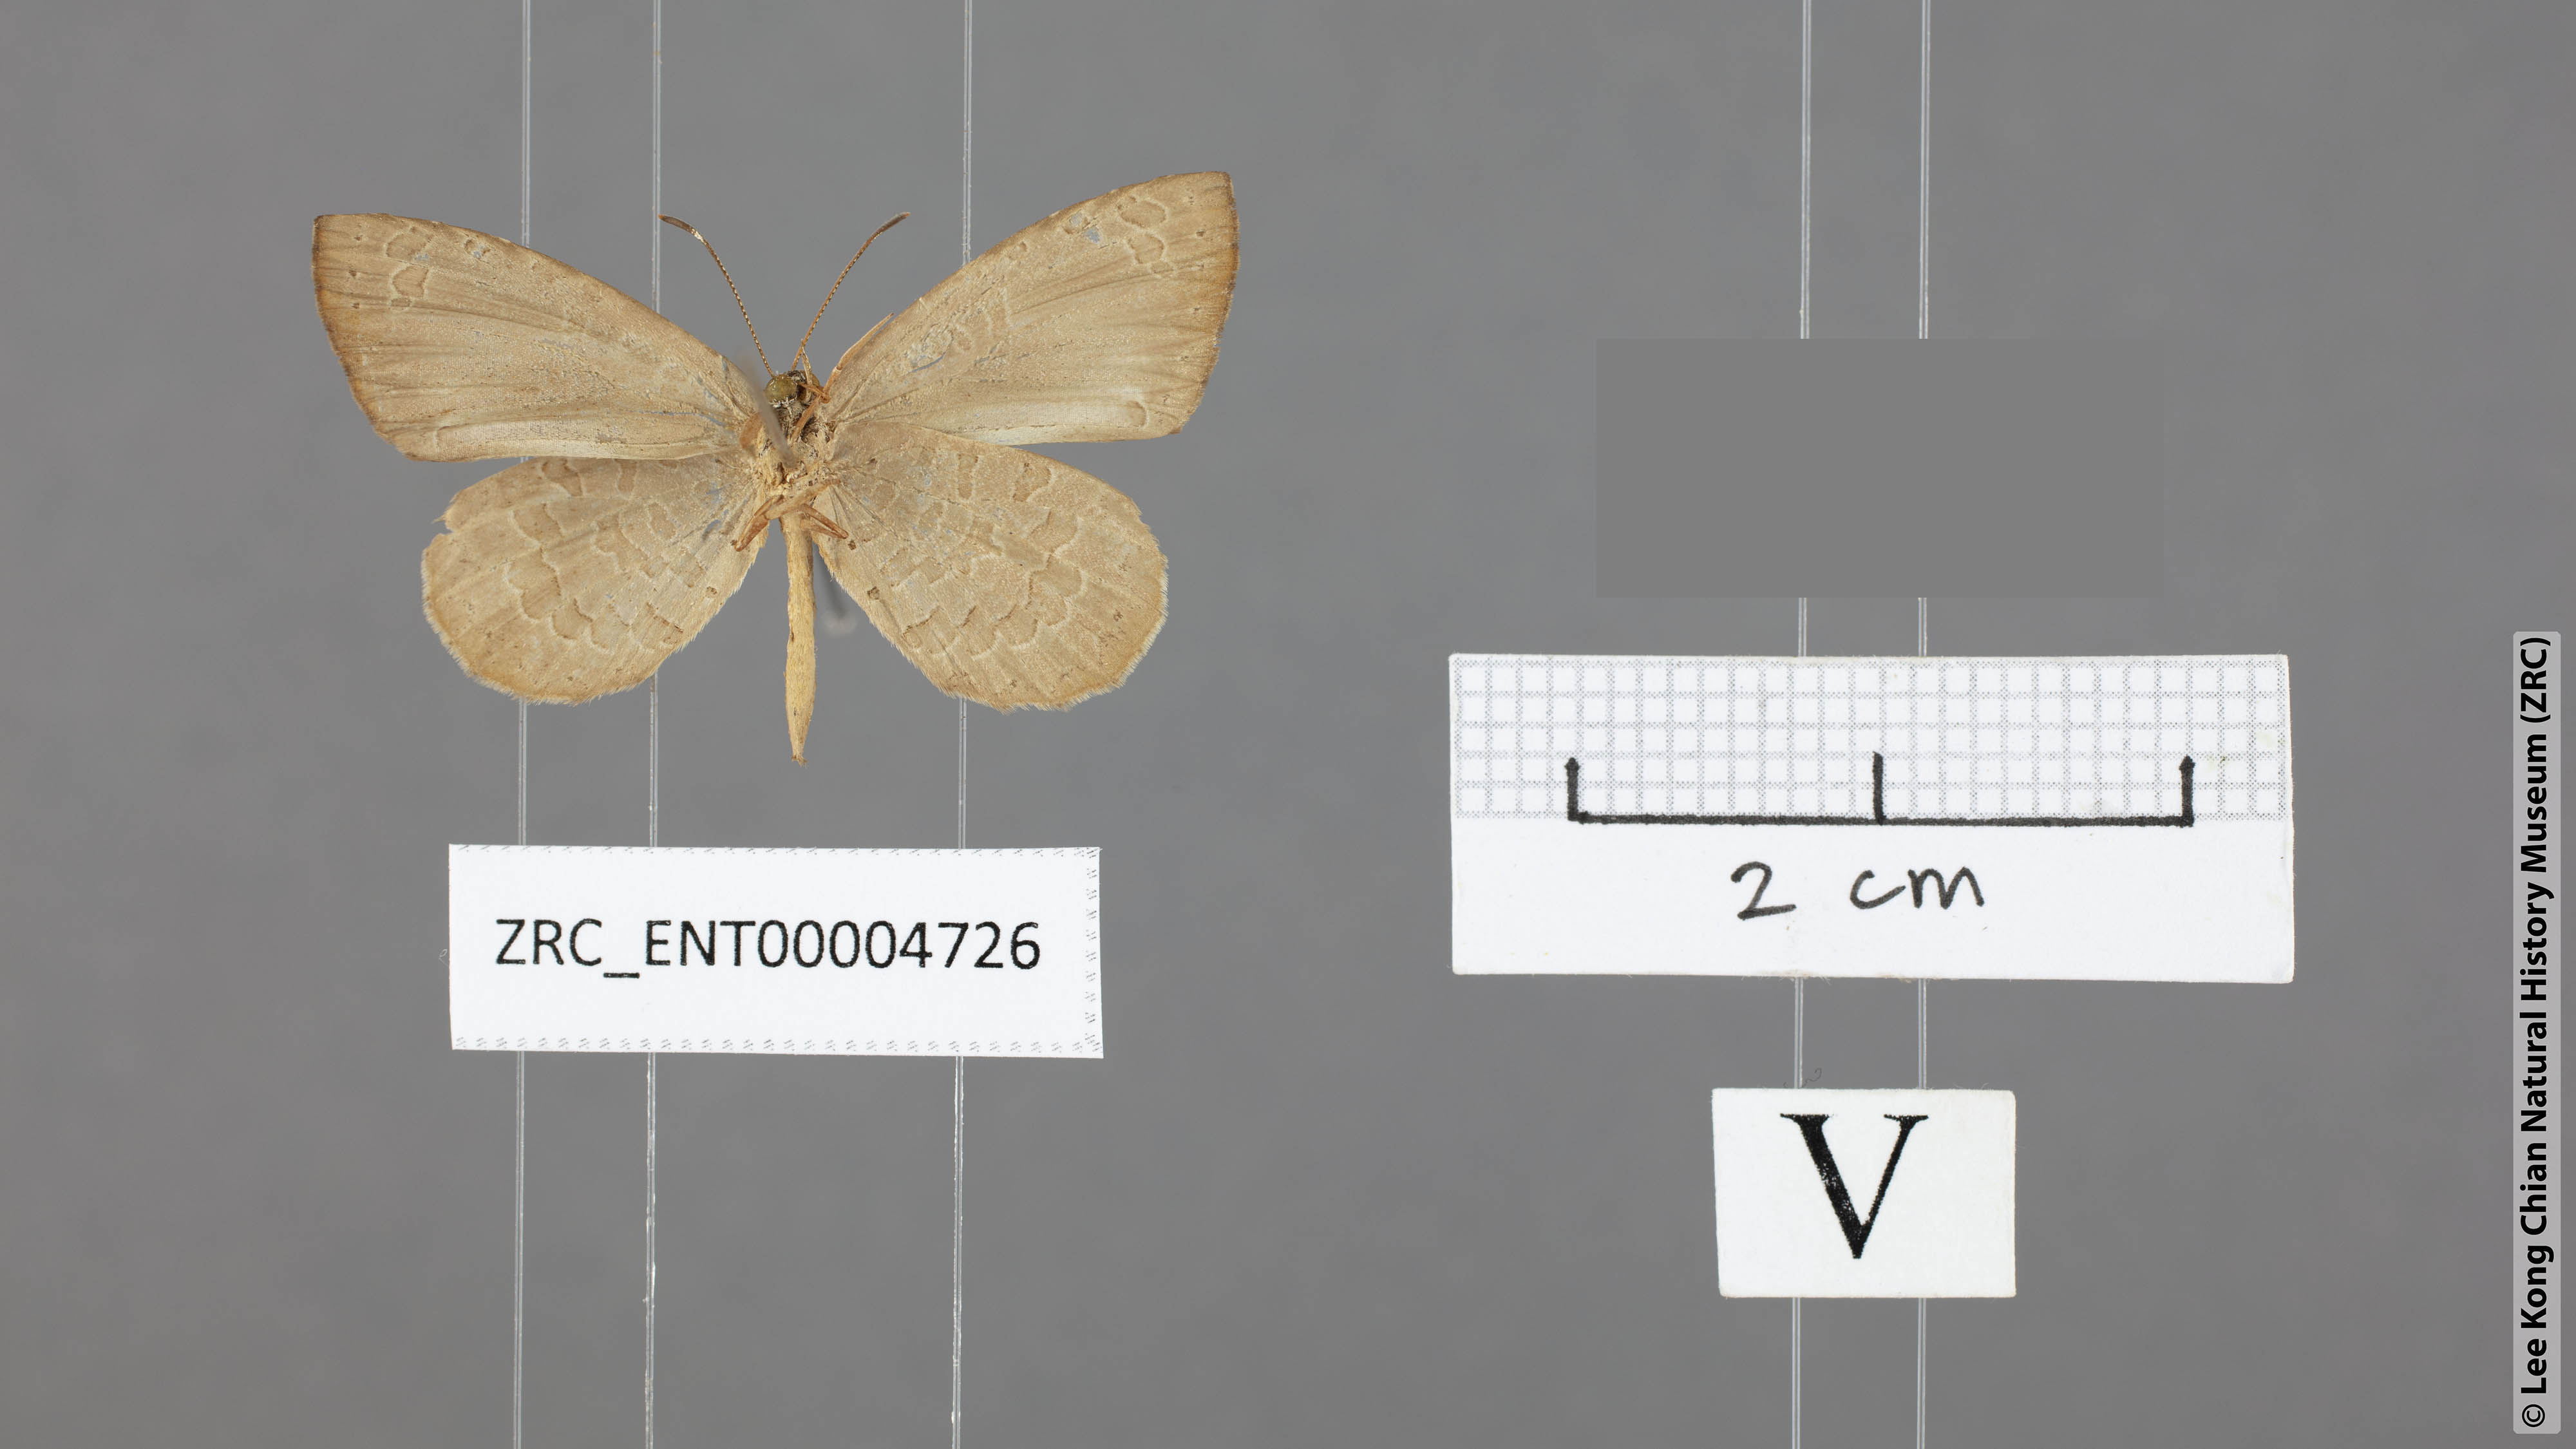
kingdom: Animalia
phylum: Arthropoda
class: Insecta
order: Lepidoptera
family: Lycaenidae
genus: Miletus
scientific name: Miletus chinensis
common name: Common brownie
